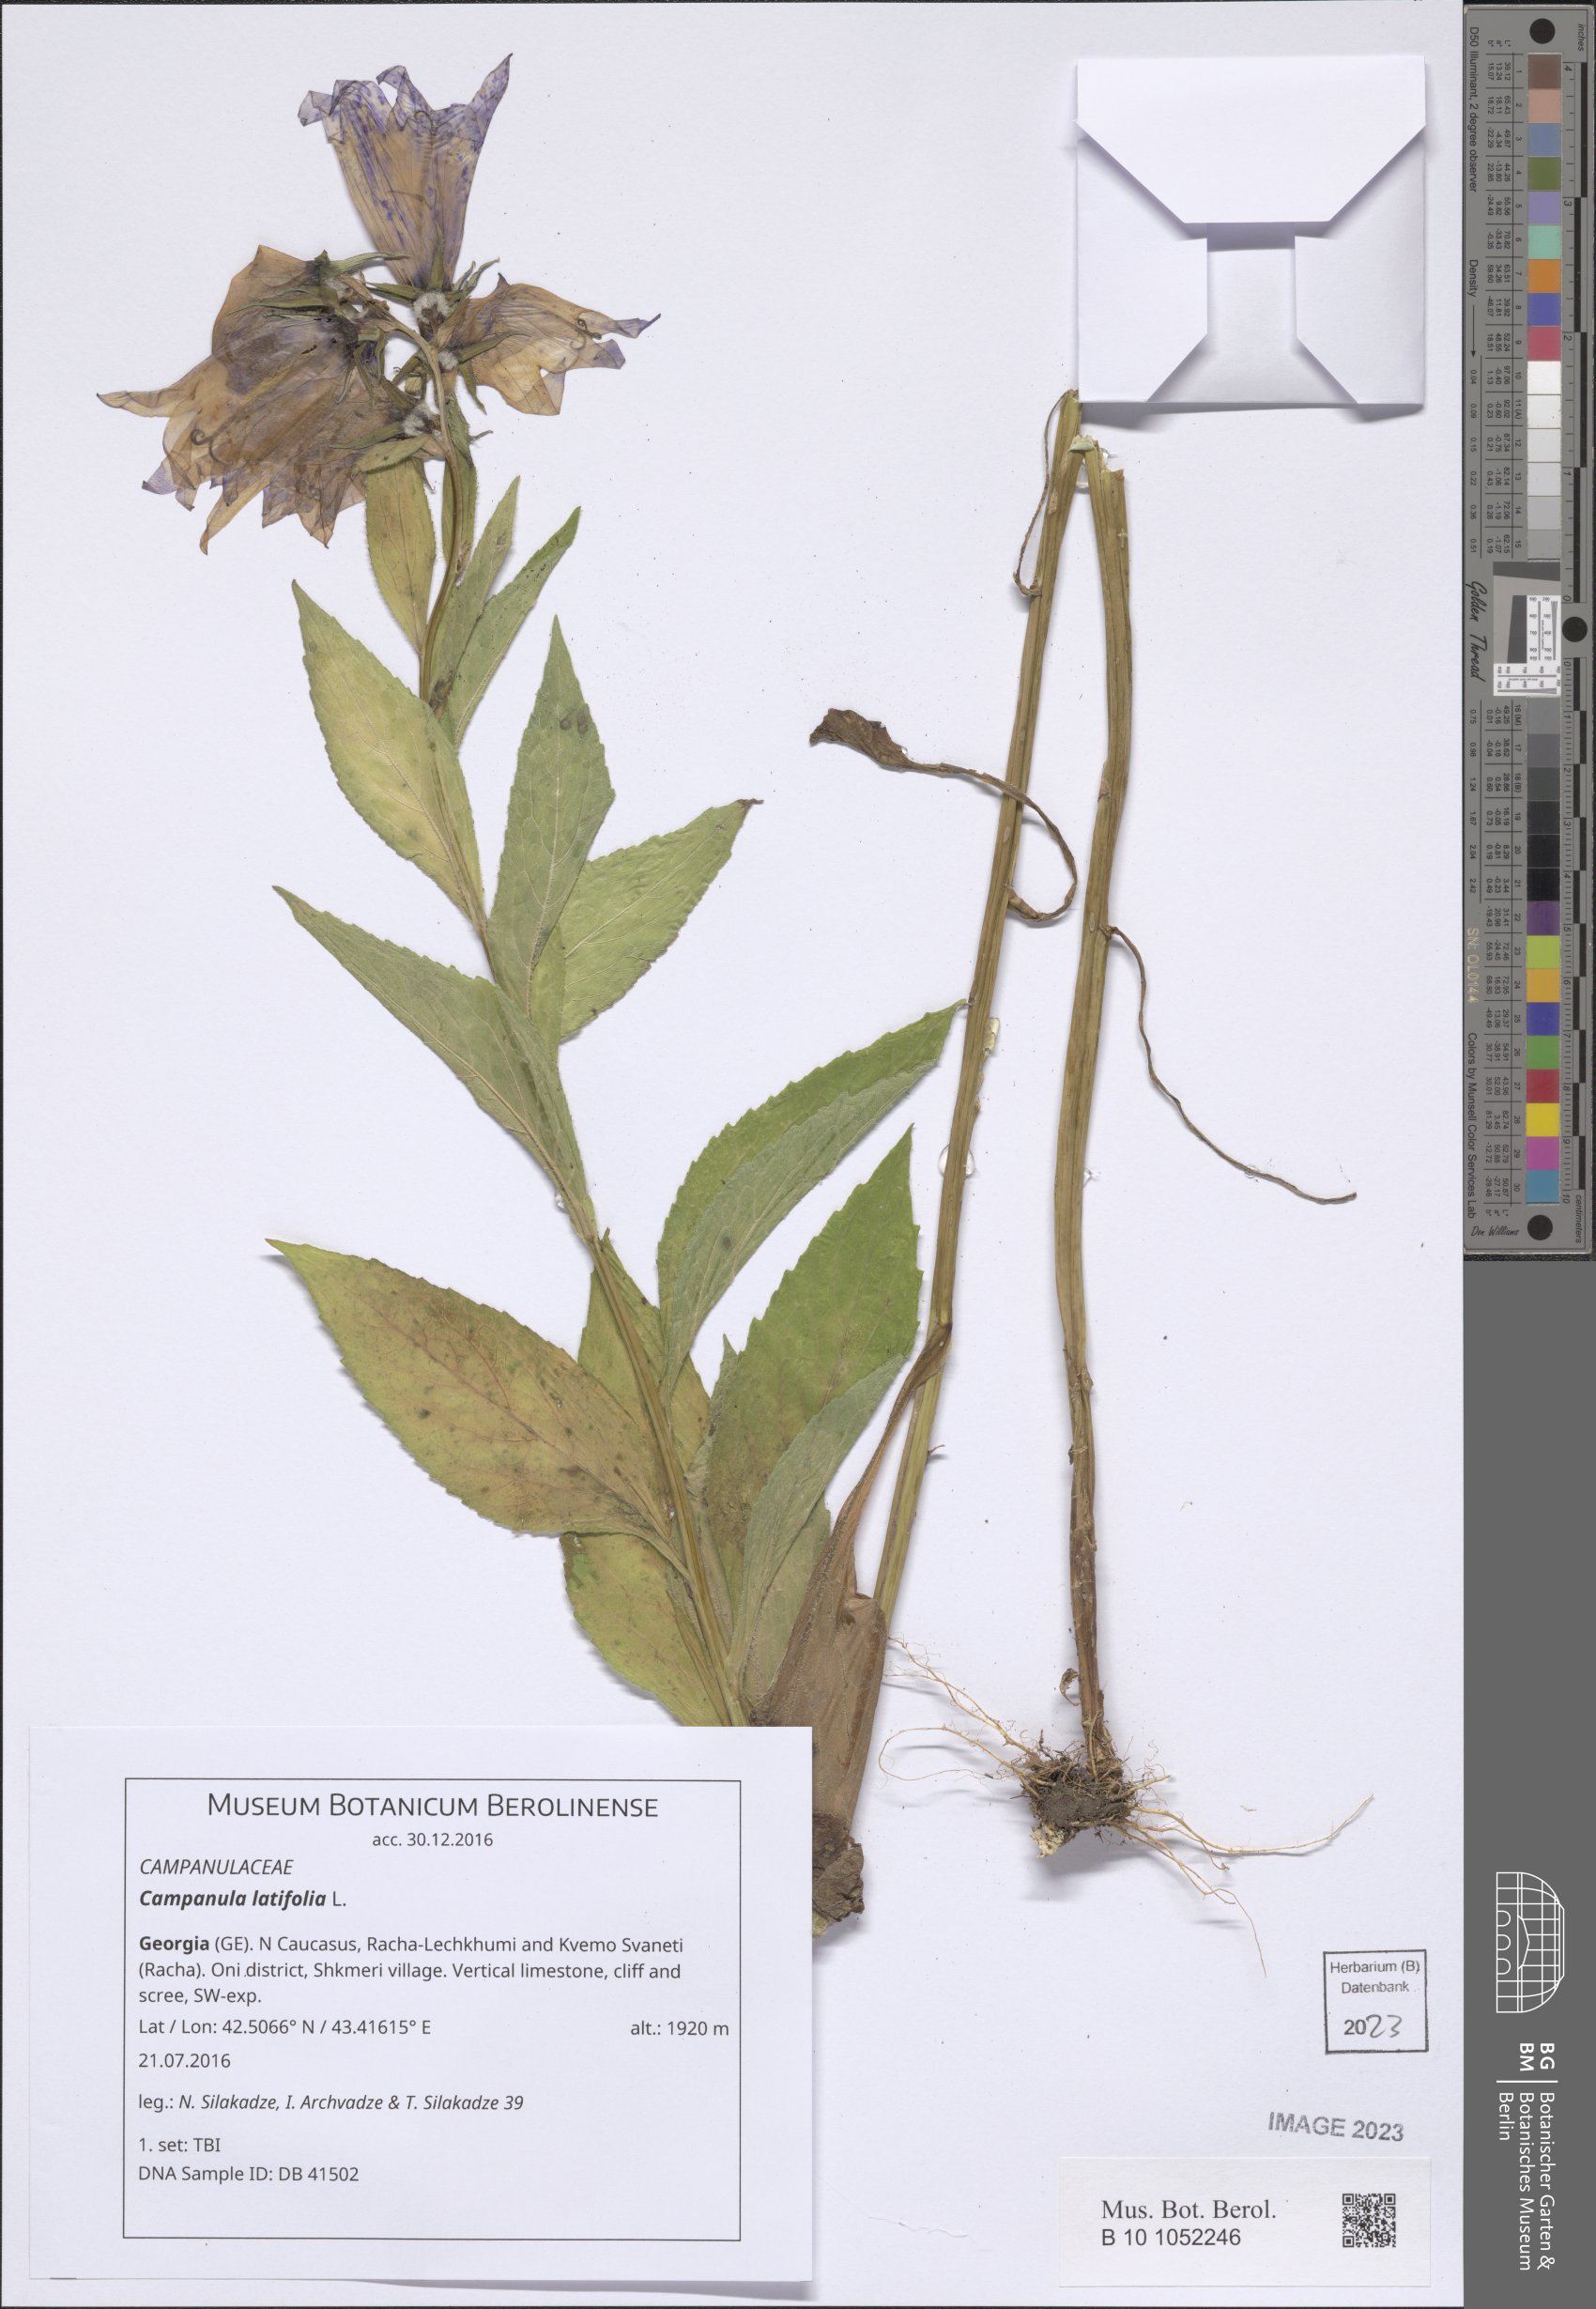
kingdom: Plantae
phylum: Tracheophyta
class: Magnoliopsida
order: Asterales
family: Campanulaceae
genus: Campanula
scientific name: Campanula latifolia
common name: Giant bellflower
